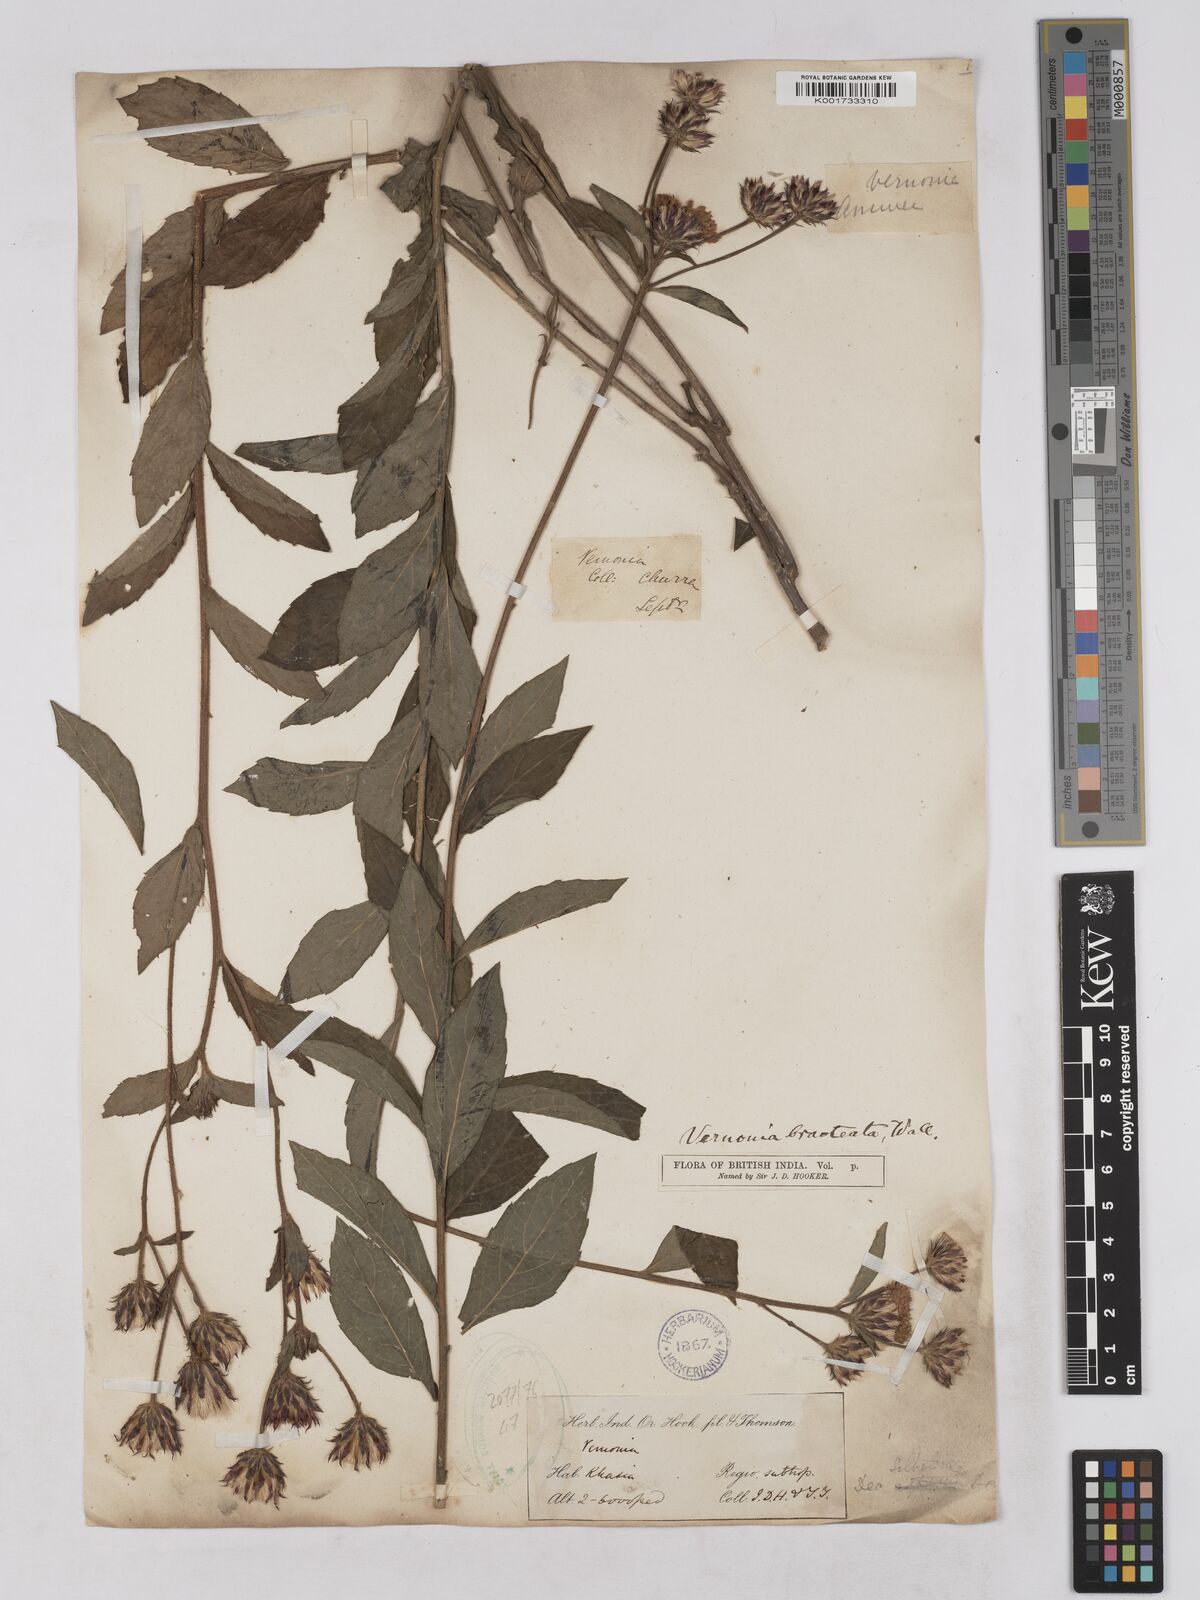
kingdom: Plantae
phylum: Tracheophyta
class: Magnoliopsida
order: Asterales
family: Asteraceae
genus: Acilepis
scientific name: Acilepis silhetensis
